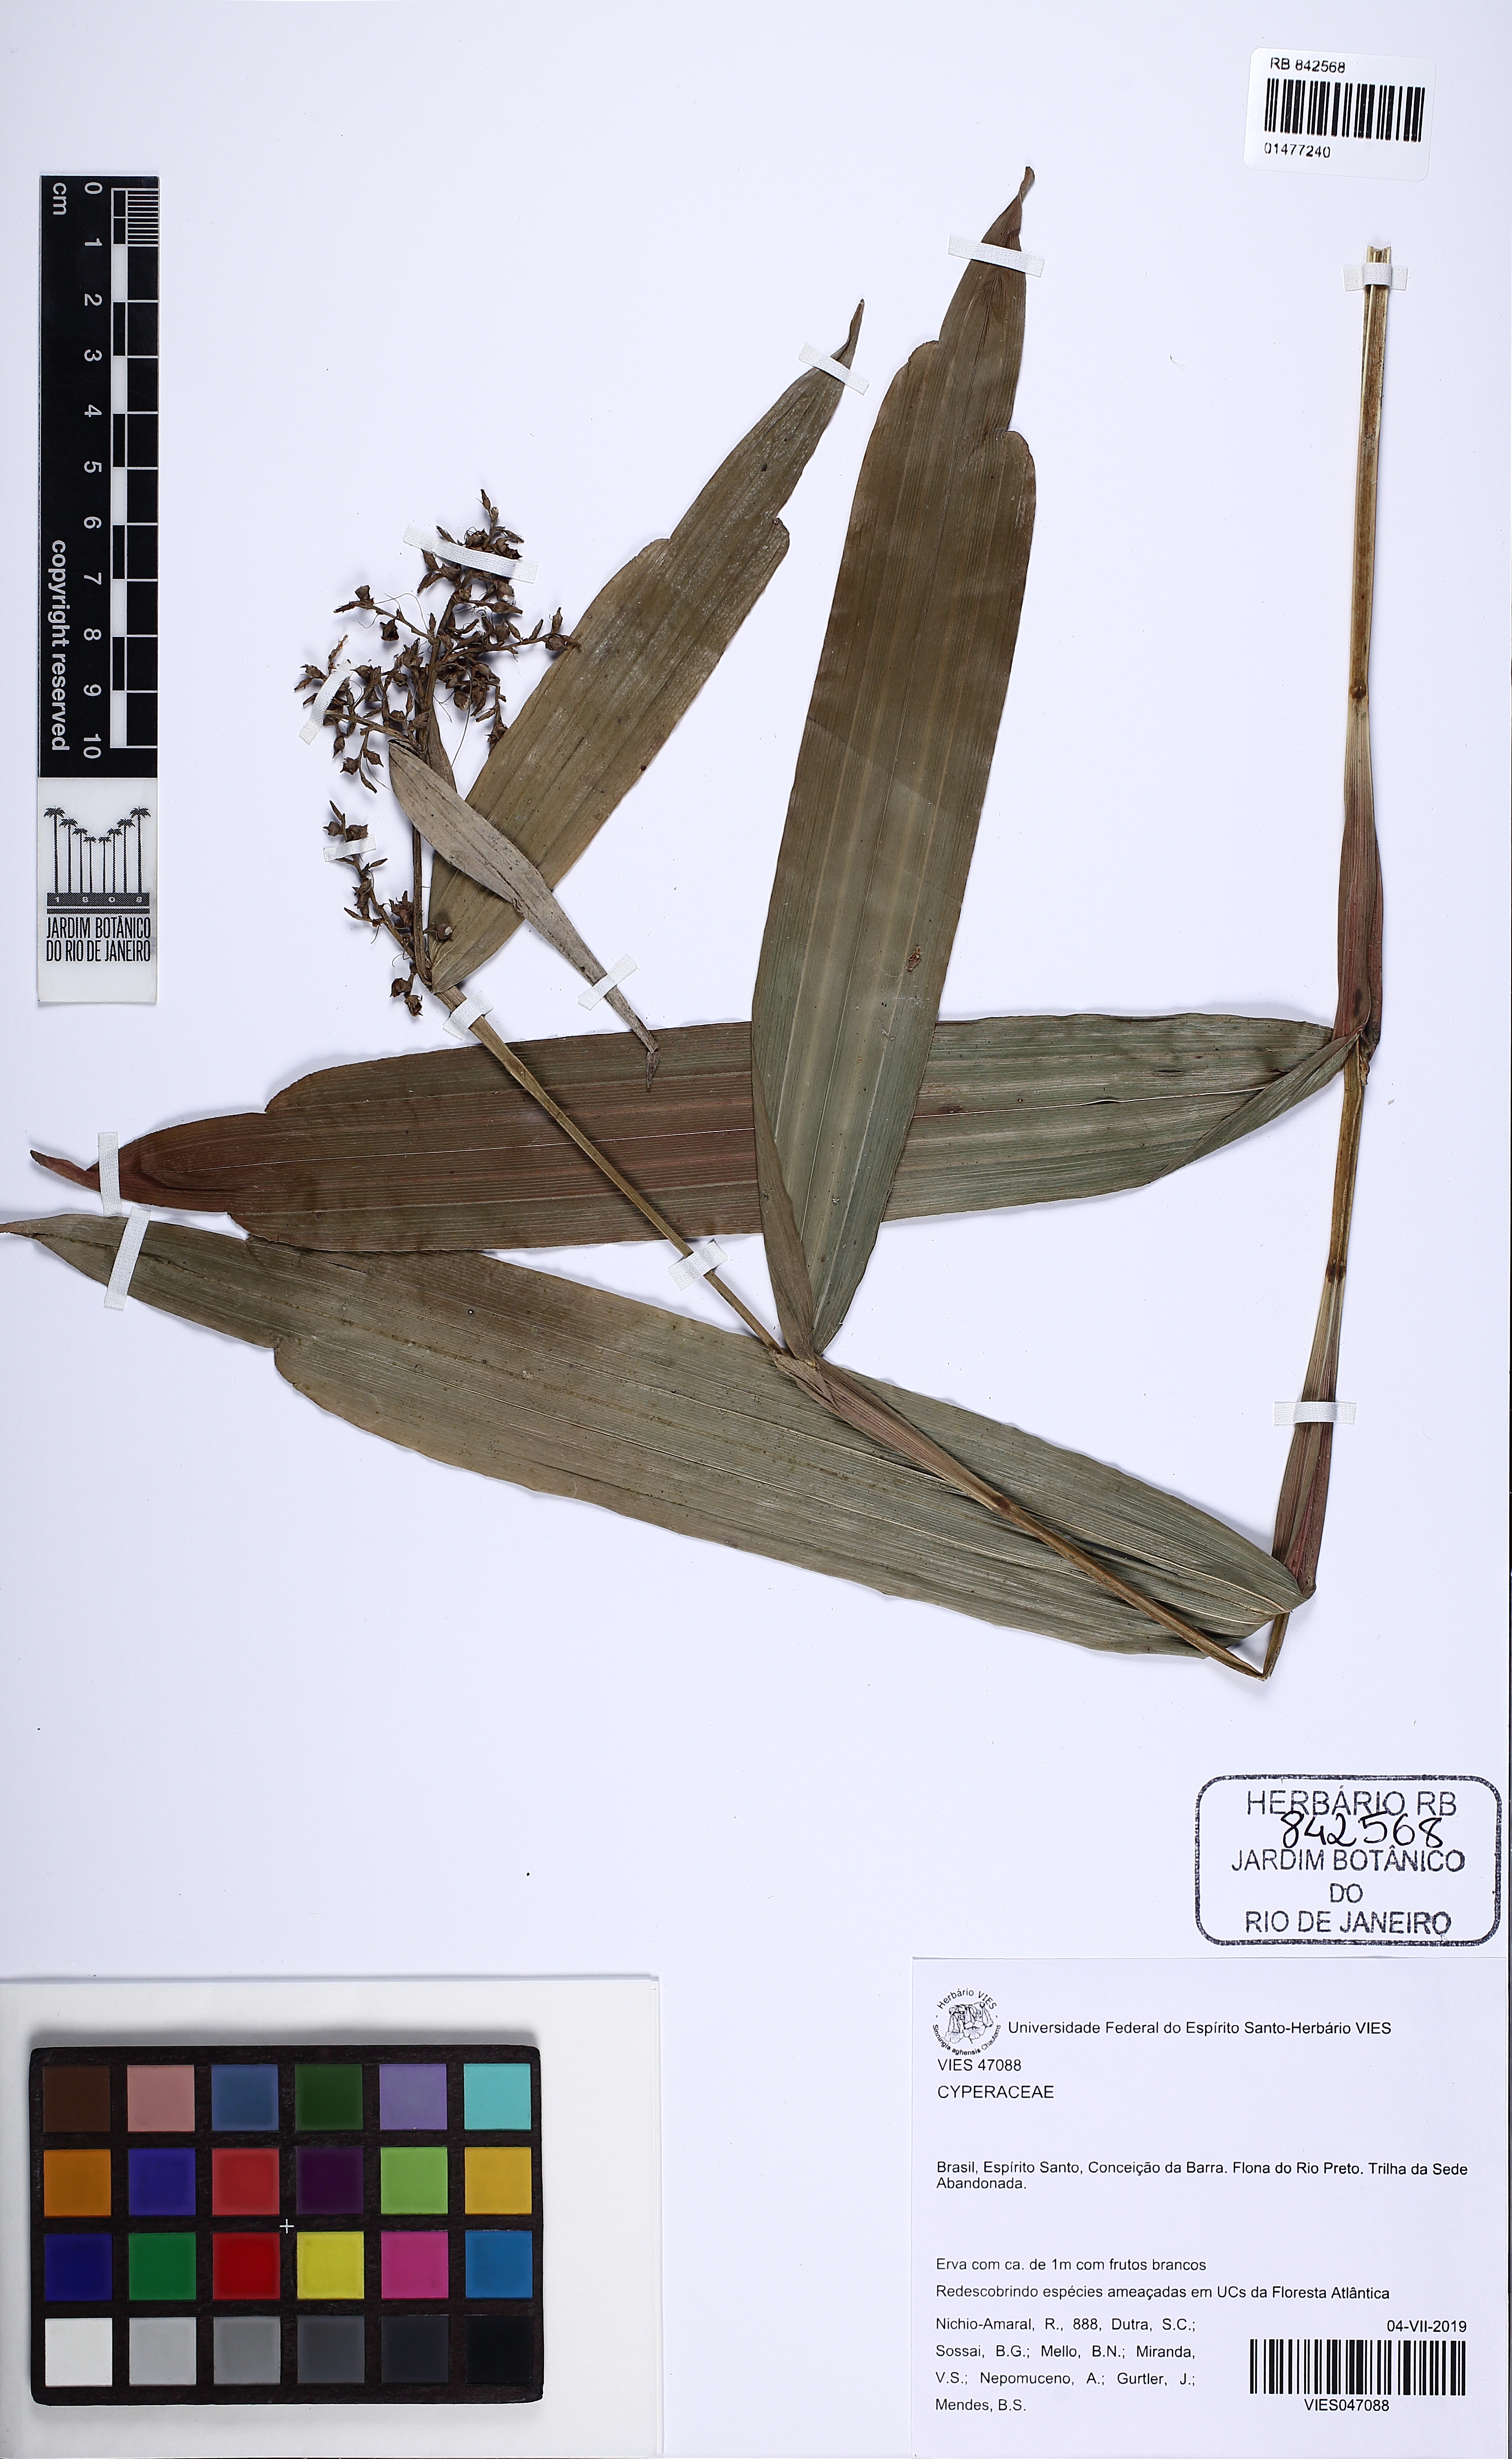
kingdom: Plantae
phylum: Tracheophyta
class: Liliopsida
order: Poales
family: Cyperaceae
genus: Scleria
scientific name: Scleria
